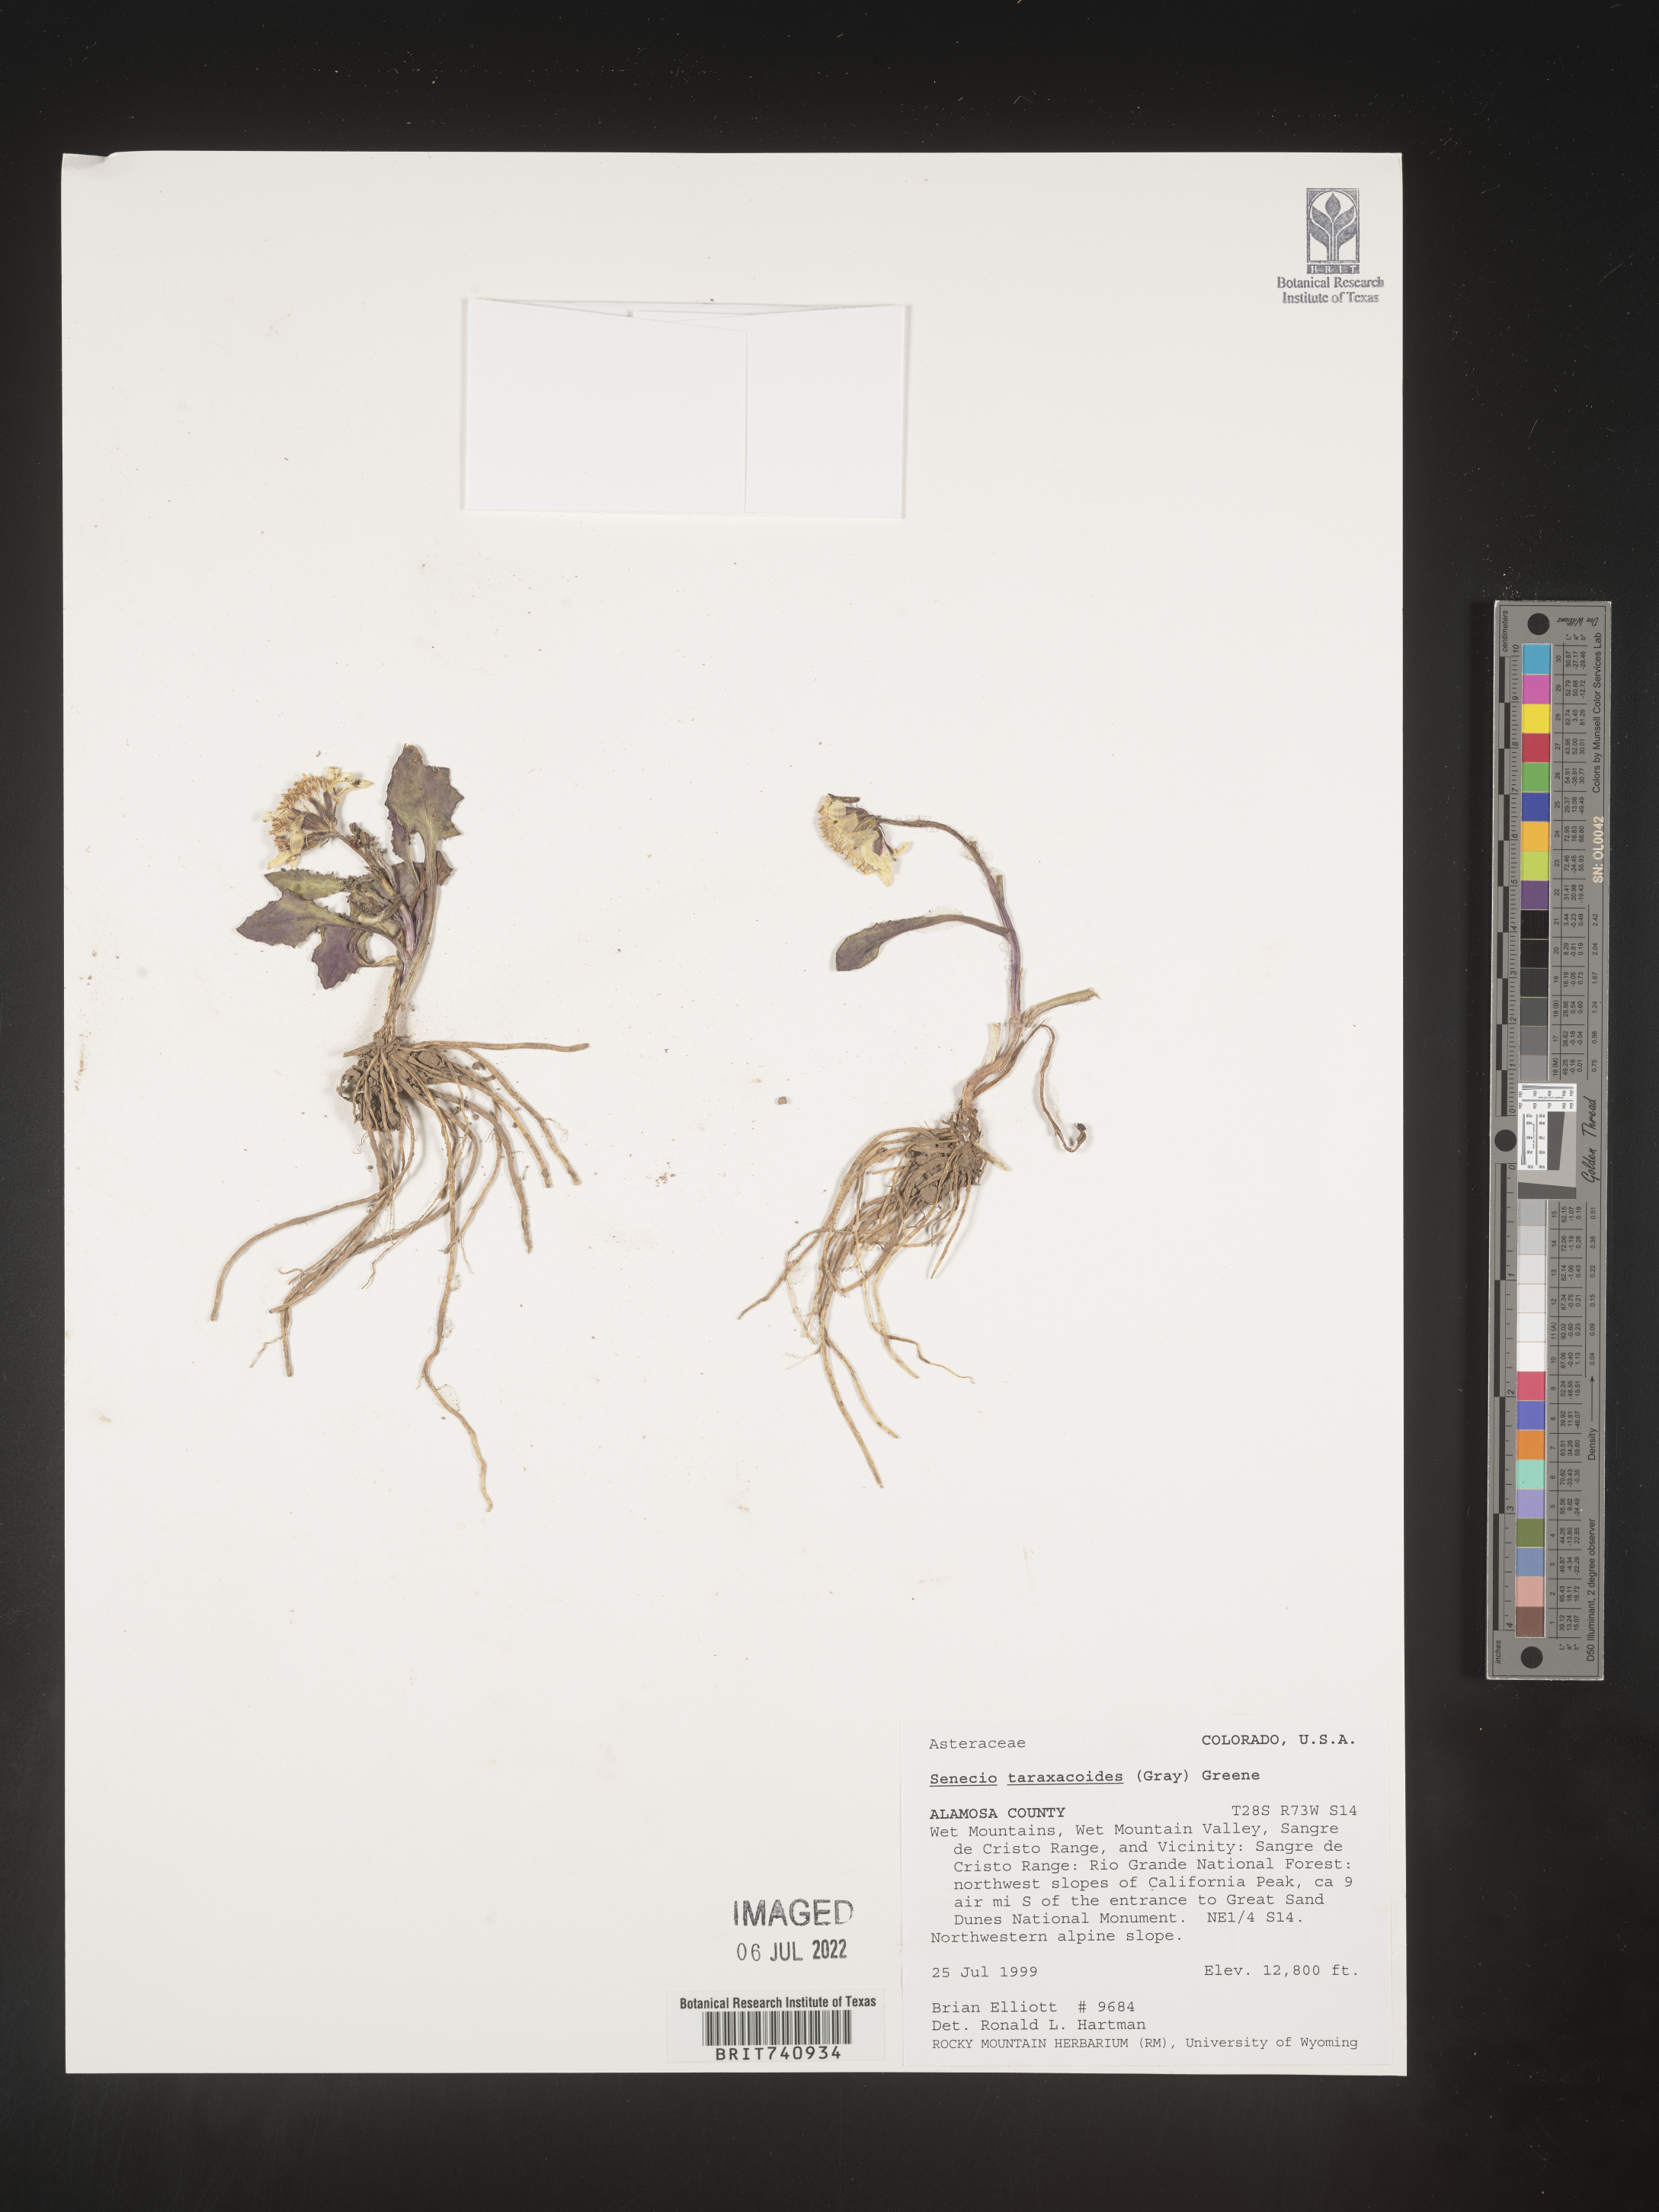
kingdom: Plantae
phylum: Tracheophyta
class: Magnoliopsida
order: Asterales
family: Asteraceae
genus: Senecio
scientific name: Senecio taraxacoides
